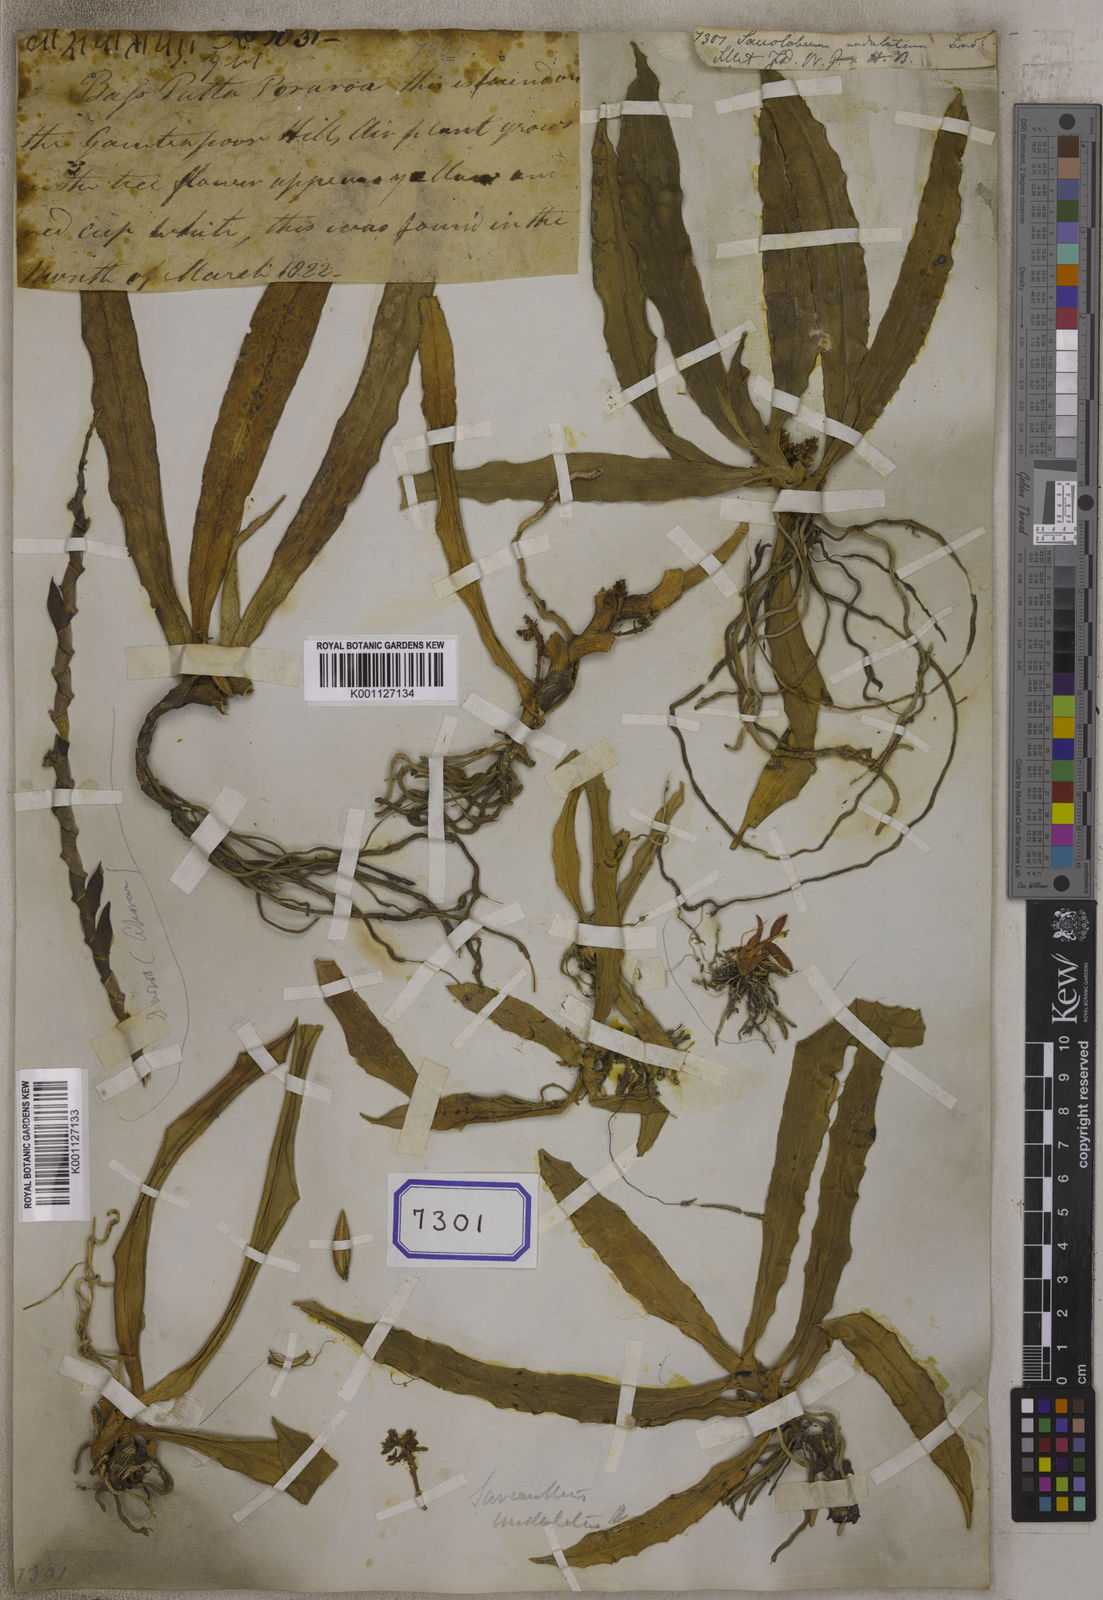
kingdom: Plantae
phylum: Tracheophyta
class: Liliopsida
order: Asparagales
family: Orchidaceae
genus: Pomatocalpa
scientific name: Pomatocalpa undulatum
